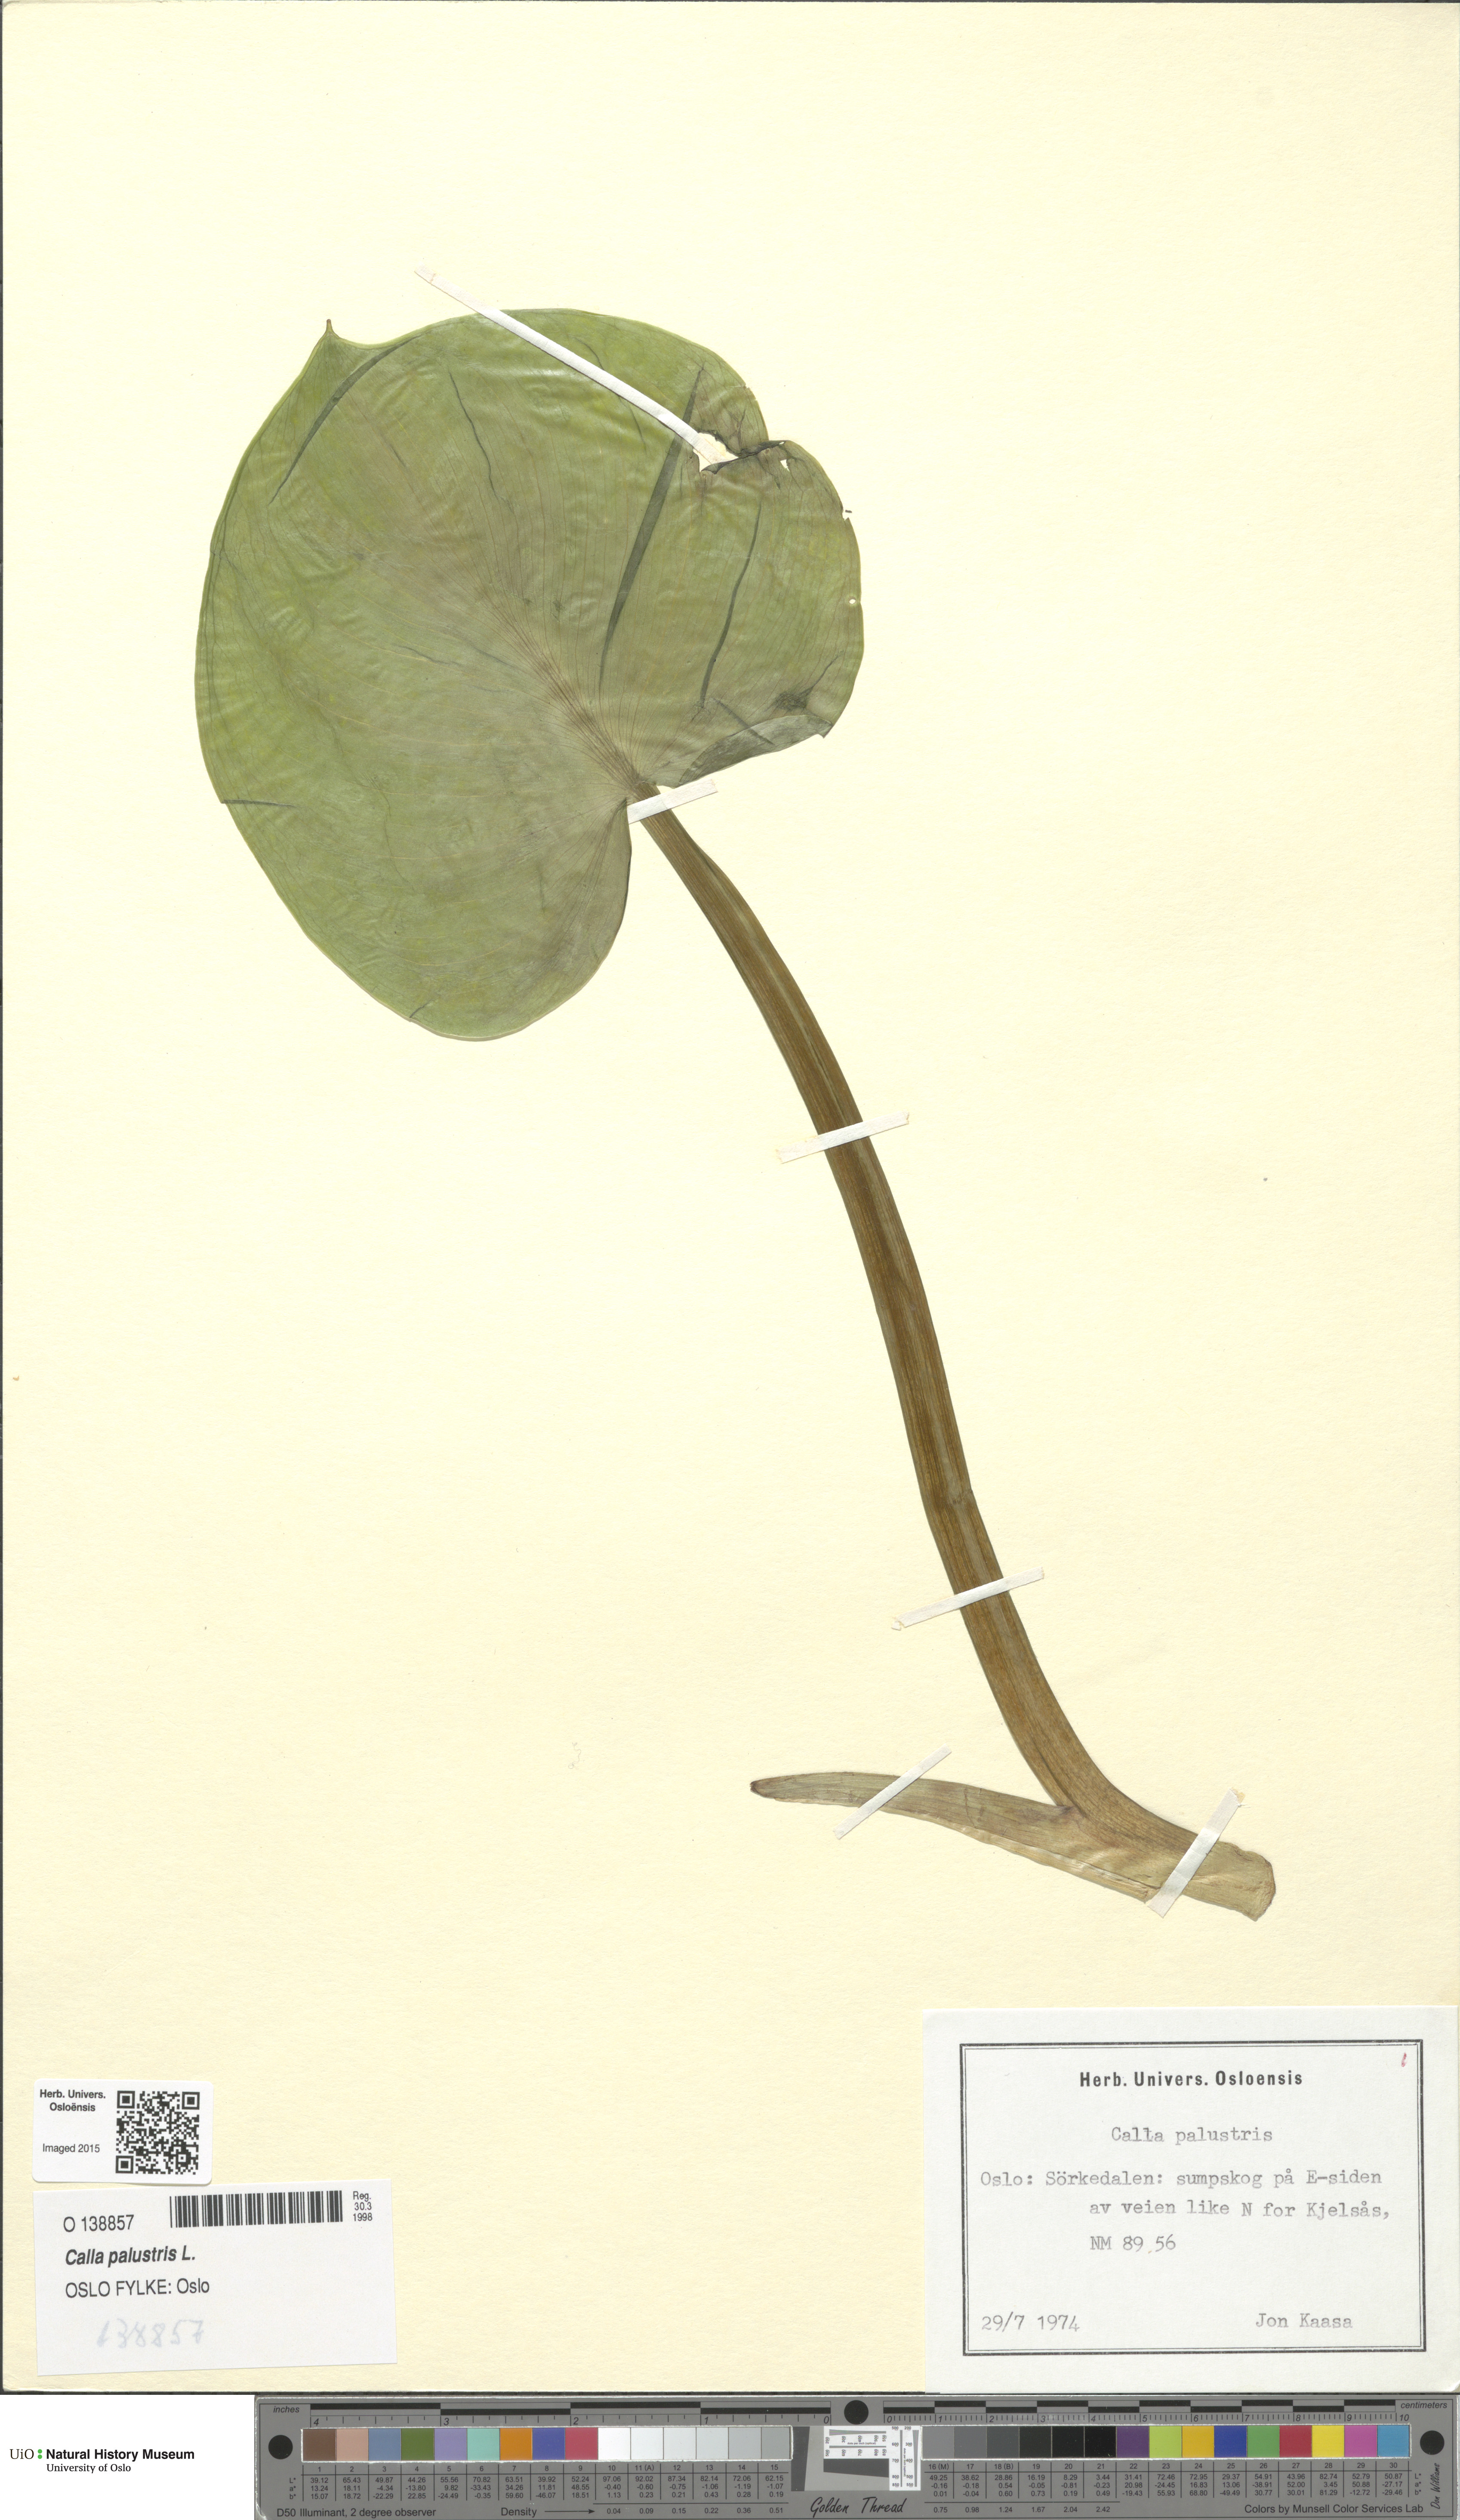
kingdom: Plantae
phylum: Tracheophyta
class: Liliopsida
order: Alismatales
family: Araceae
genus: Calla
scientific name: Calla palustris
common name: Bog arum
